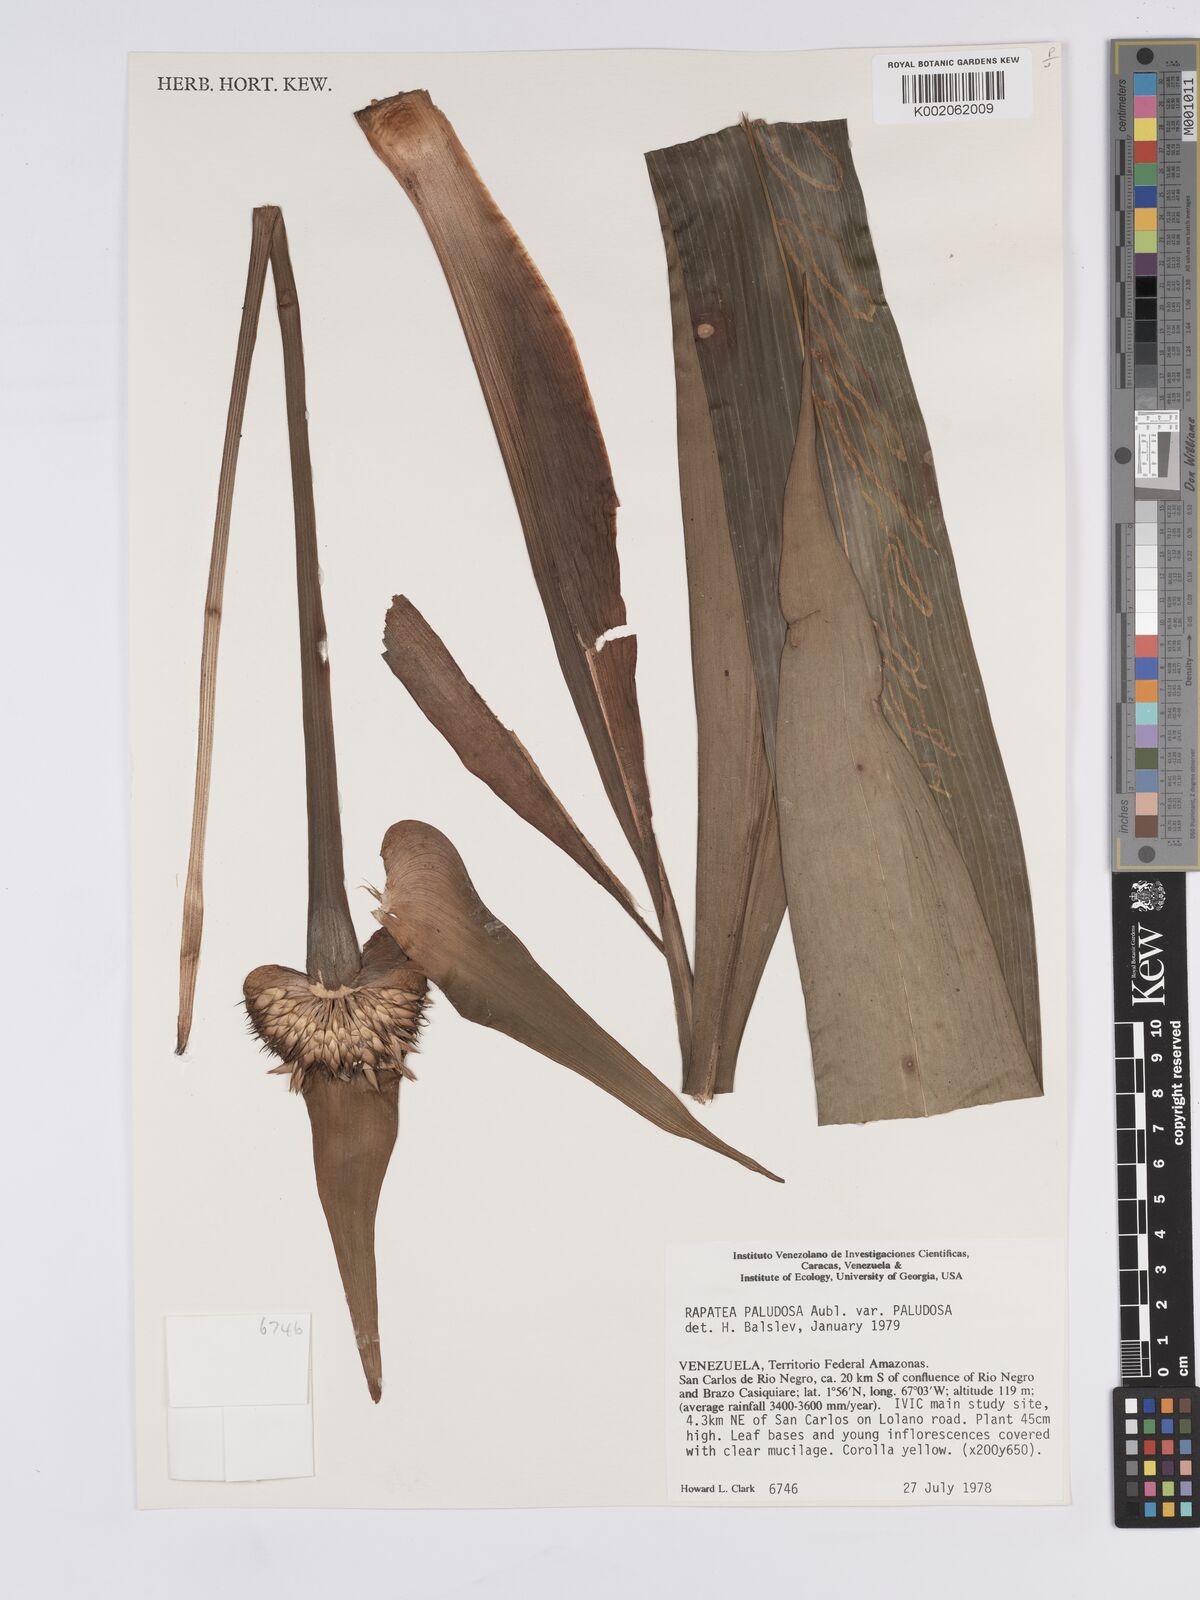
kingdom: Plantae
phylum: Tracheophyta
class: Liliopsida
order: Poales
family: Rapateaceae
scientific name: Rapateaceae
